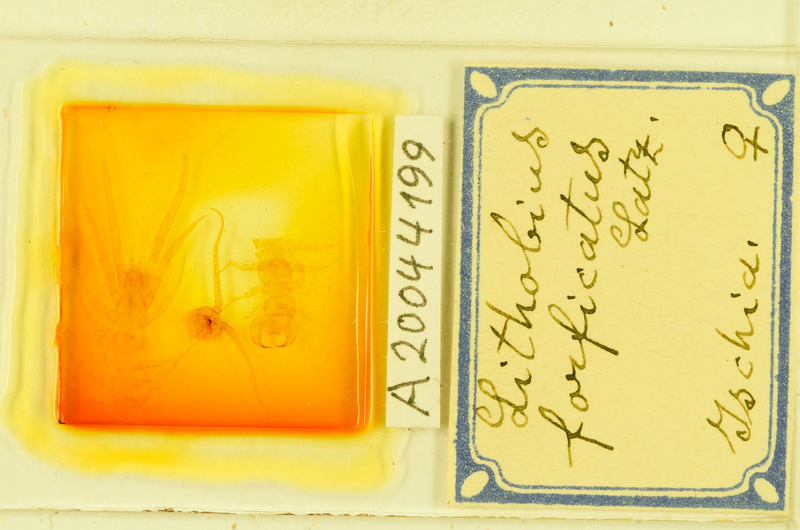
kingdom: Animalia
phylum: Arthropoda
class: Chilopoda
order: Lithobiomorpha
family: Lithobiidae
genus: Lithobius
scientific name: Lithobius forficatus
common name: Centipede
